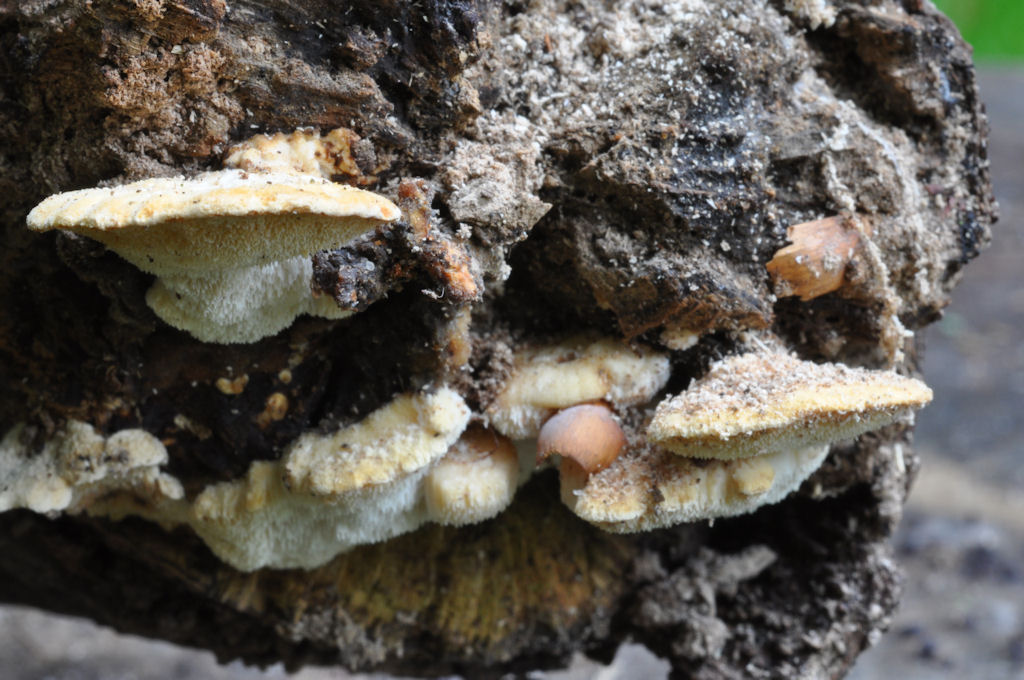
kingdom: Fungi
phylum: Basidiomycota
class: Agaricomycetes
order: Polyporales
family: Steccherinaceae
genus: Antrodiella
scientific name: Antrodiella serpula
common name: gulrandet elastikporesvamp
